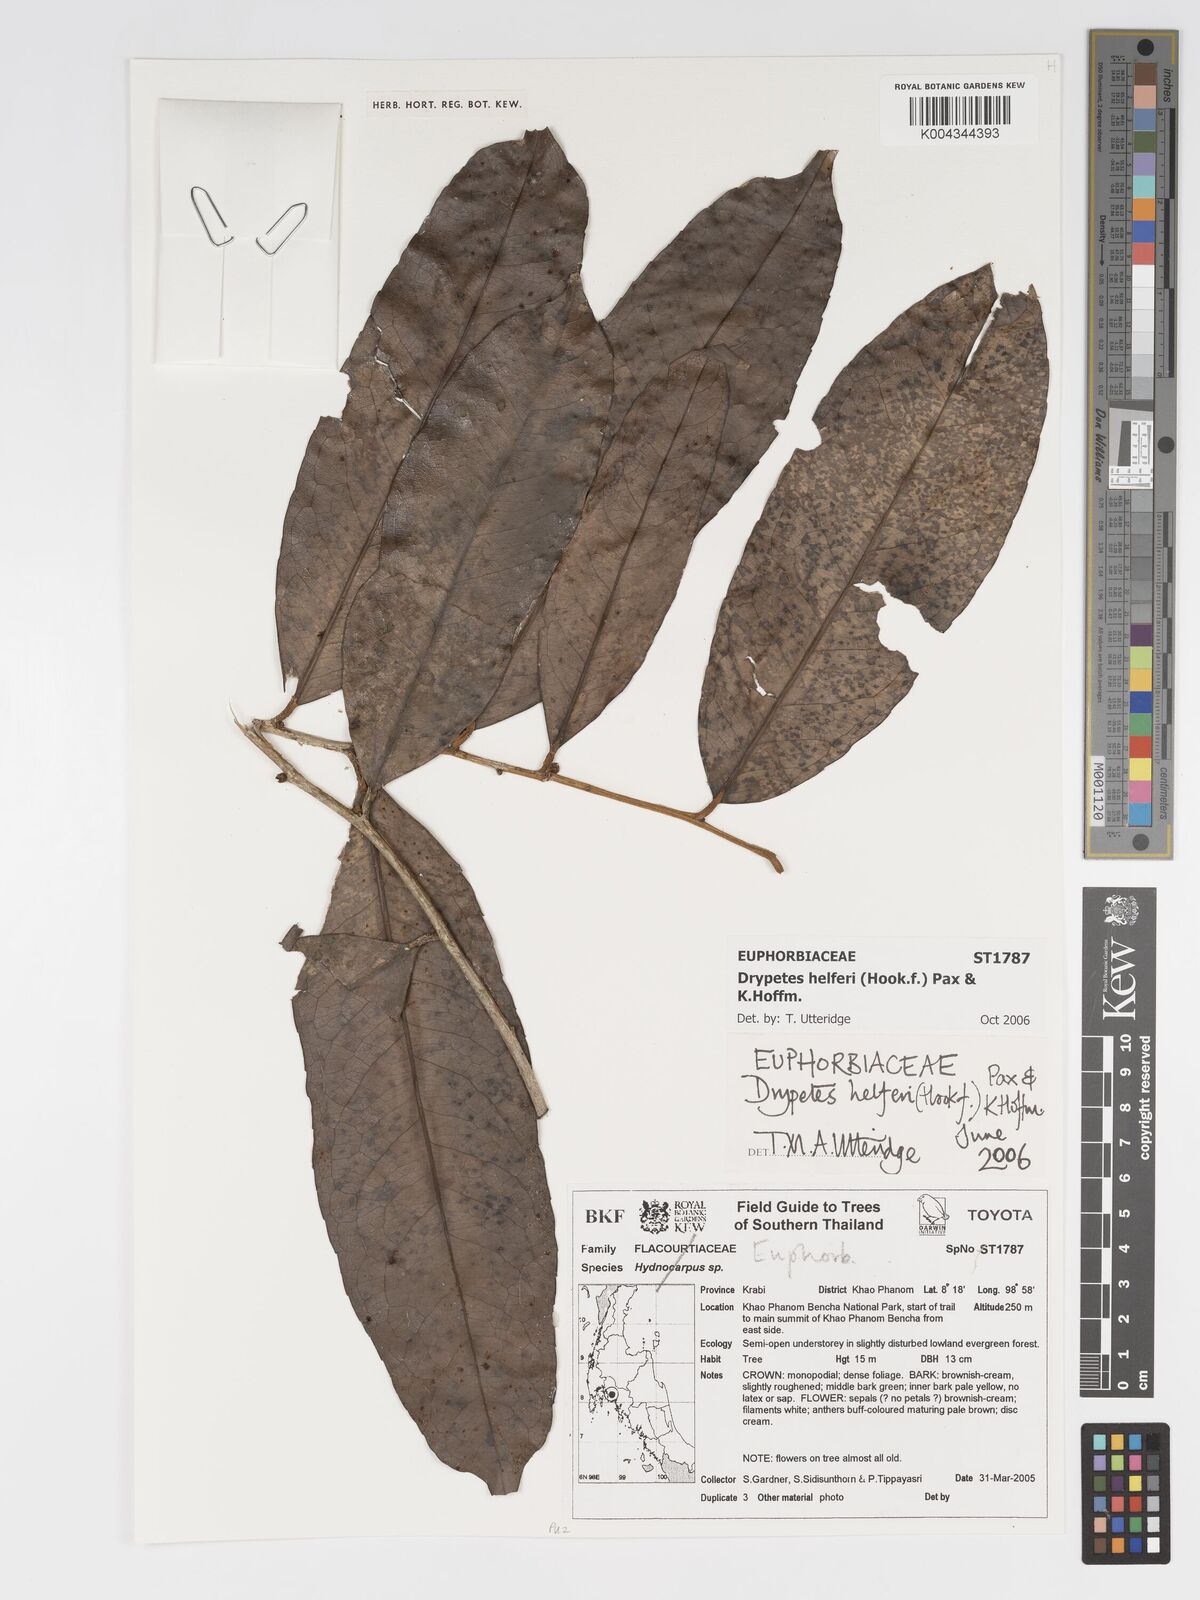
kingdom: Plantae
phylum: Tracheophyta
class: Magnoliopsida
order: Malpighiales
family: Putranjivaceae
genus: Drypetes
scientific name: Drypetes helferi
